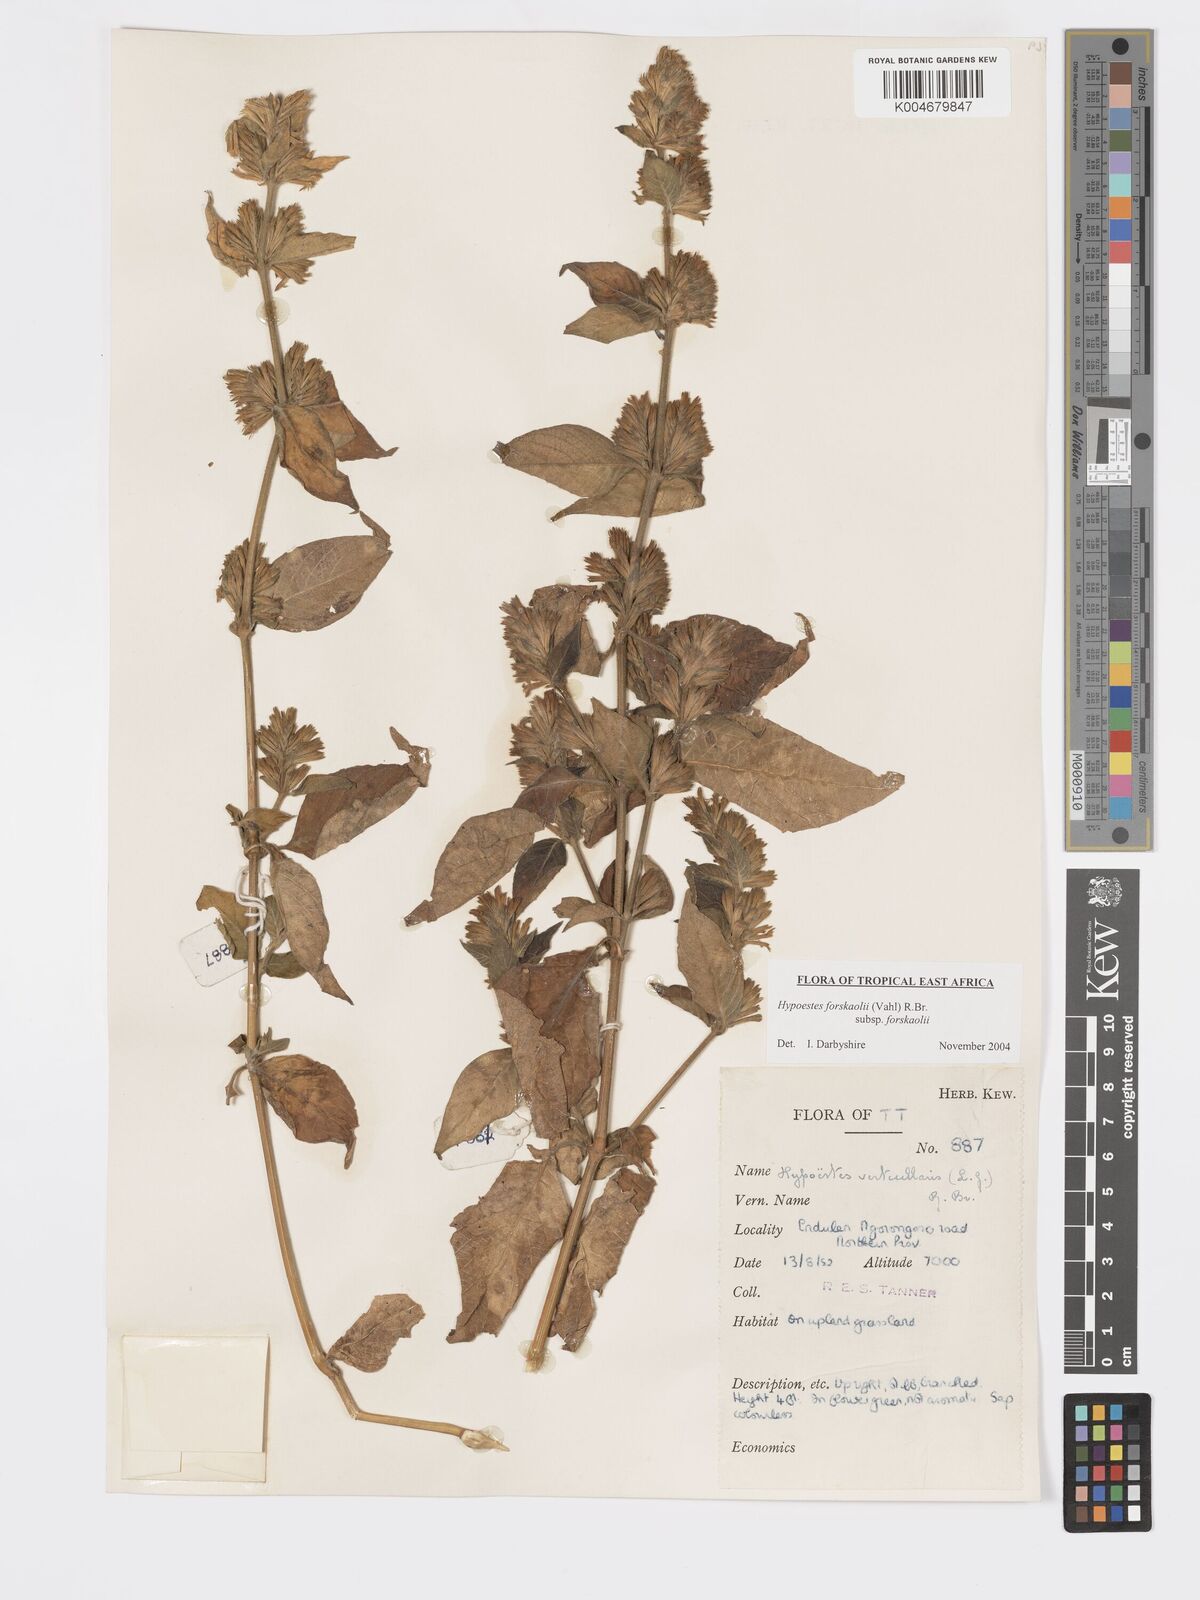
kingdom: Plantae
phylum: Tracheophyta
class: Magnoliopsida
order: Lamiales
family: Acanthaceae
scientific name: Acanthaceae
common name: Acanthaceae
